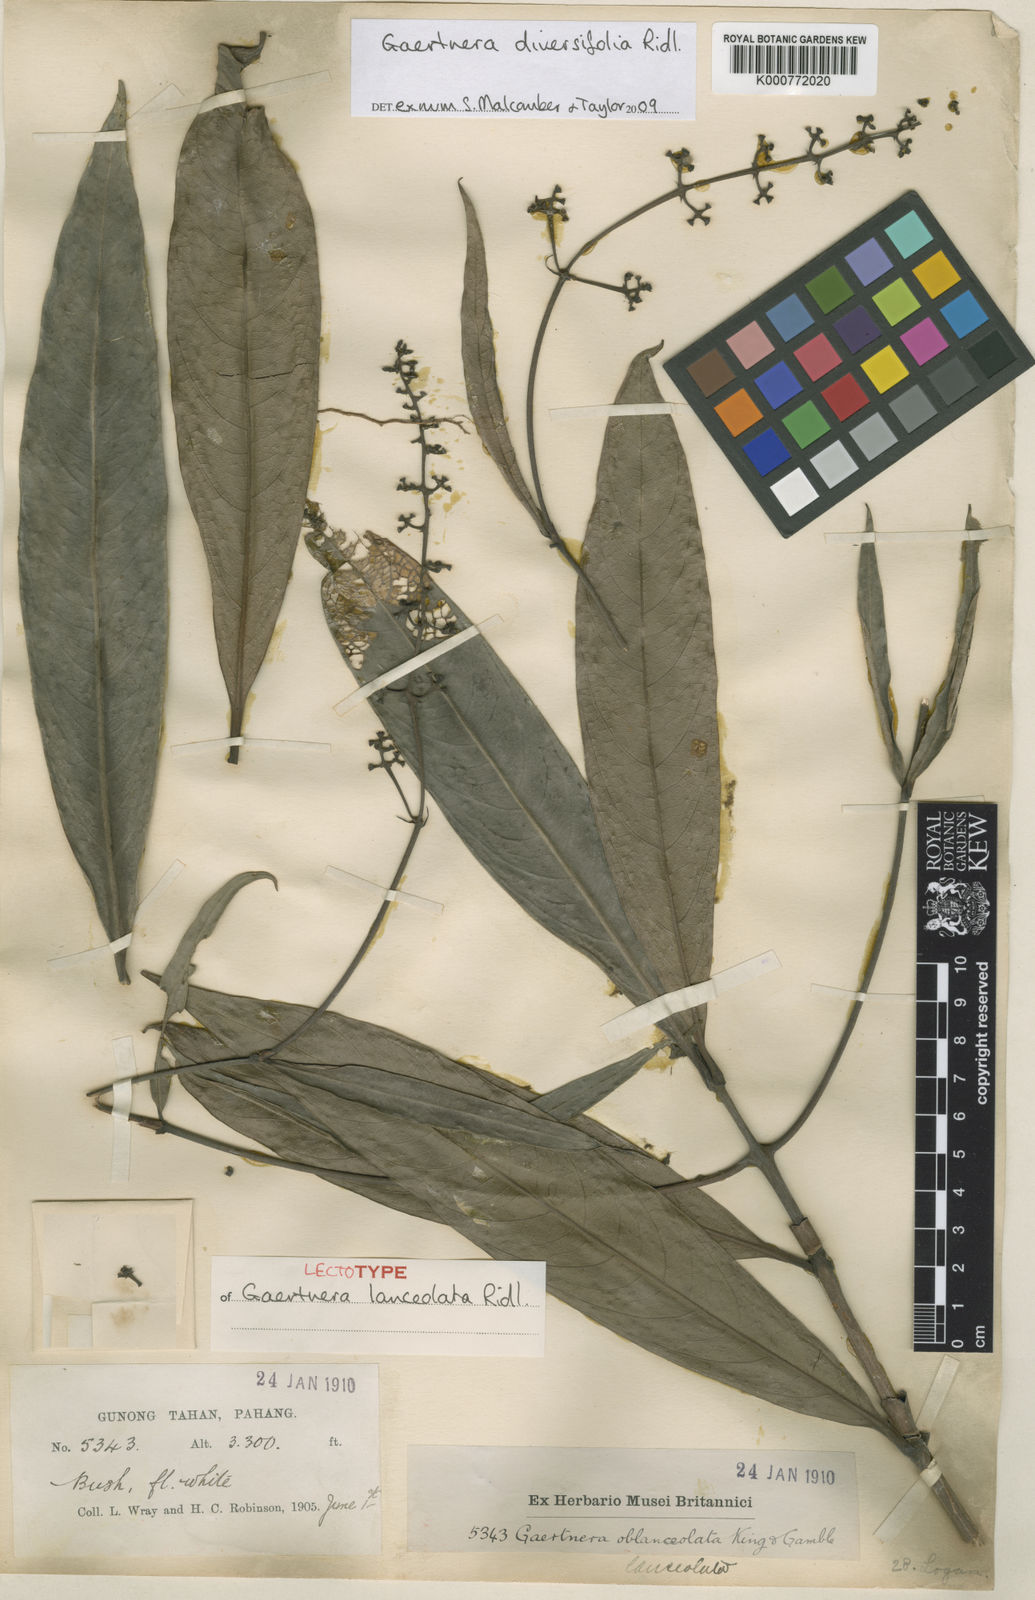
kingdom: Plantae
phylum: Tracheophyta
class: Magnoliopsida
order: Gentianales
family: Rubiaceae
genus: Gaertnera
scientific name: Gaertnera diversifolia
